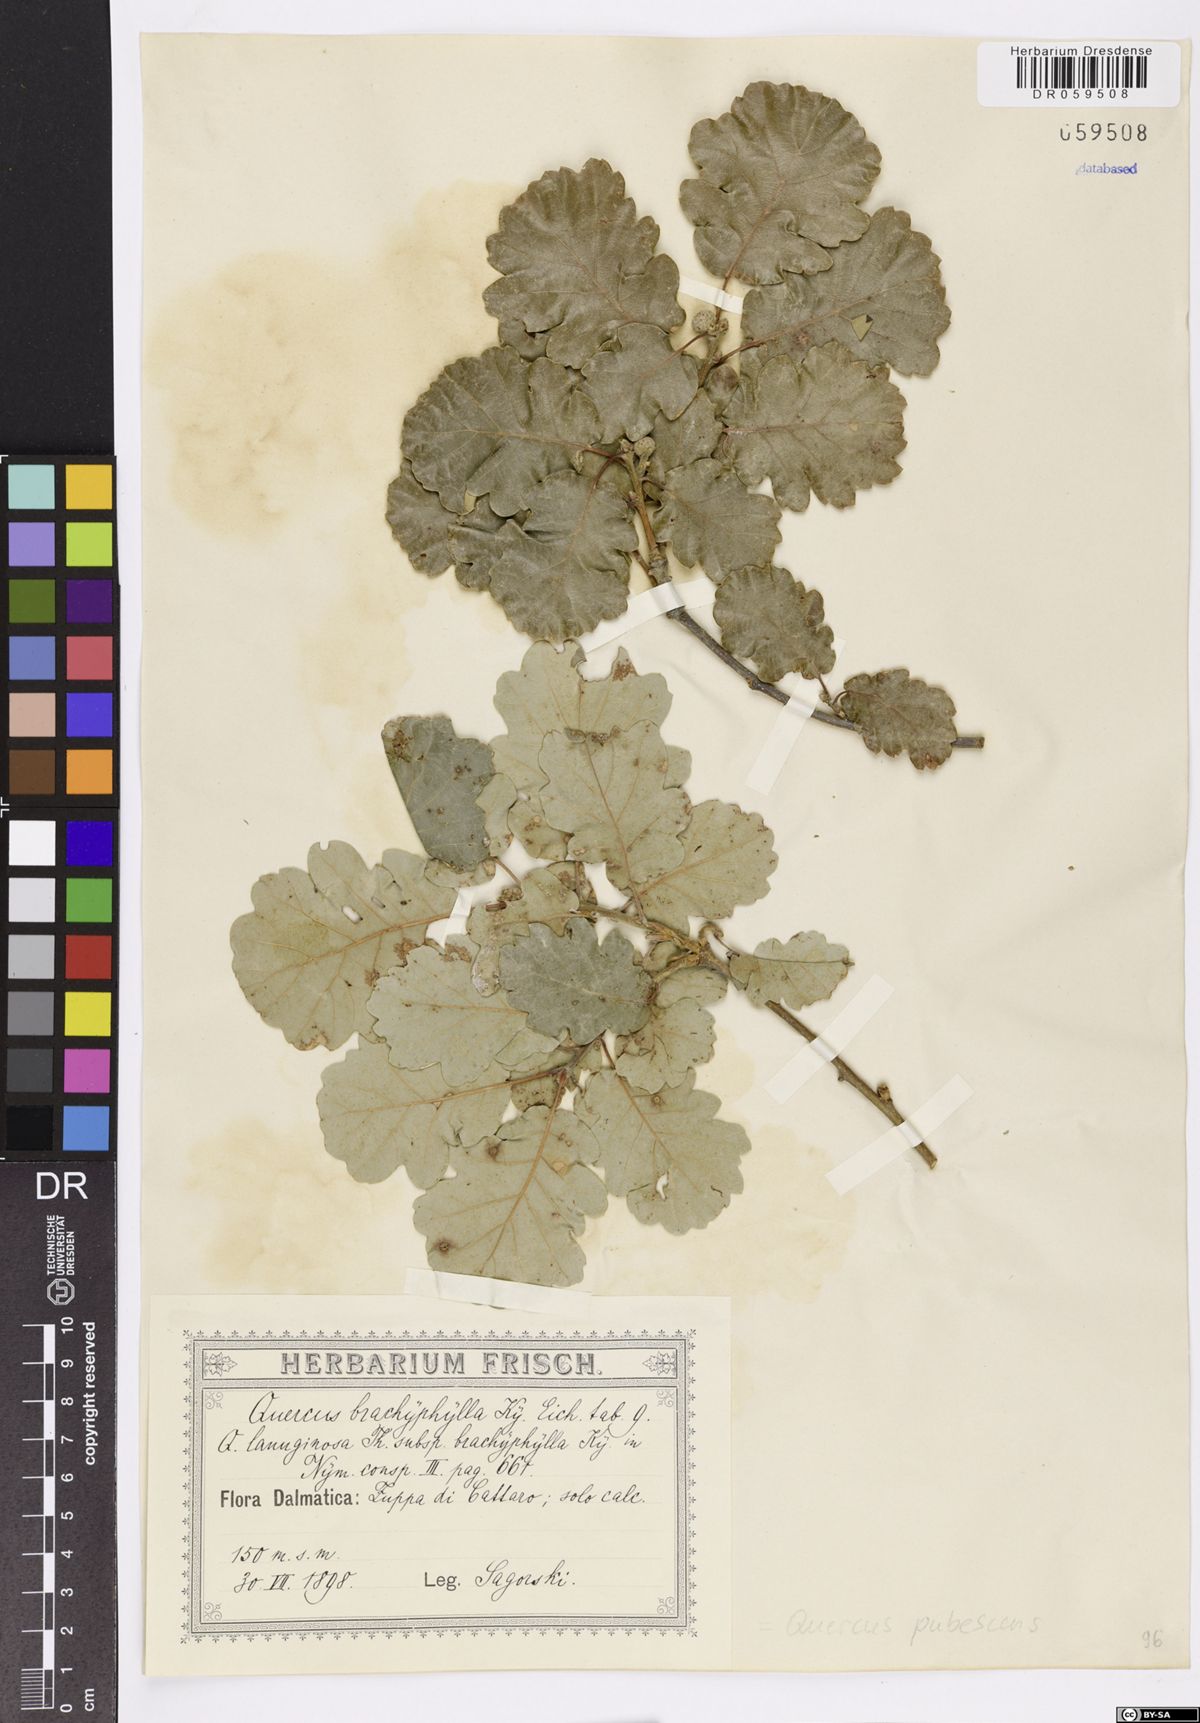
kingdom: Plantae
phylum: Tracheophyta
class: Magnoliopsida
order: Fagales
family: Fagaceae
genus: Quercus
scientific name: Quercus pubescens
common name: Downy oak
